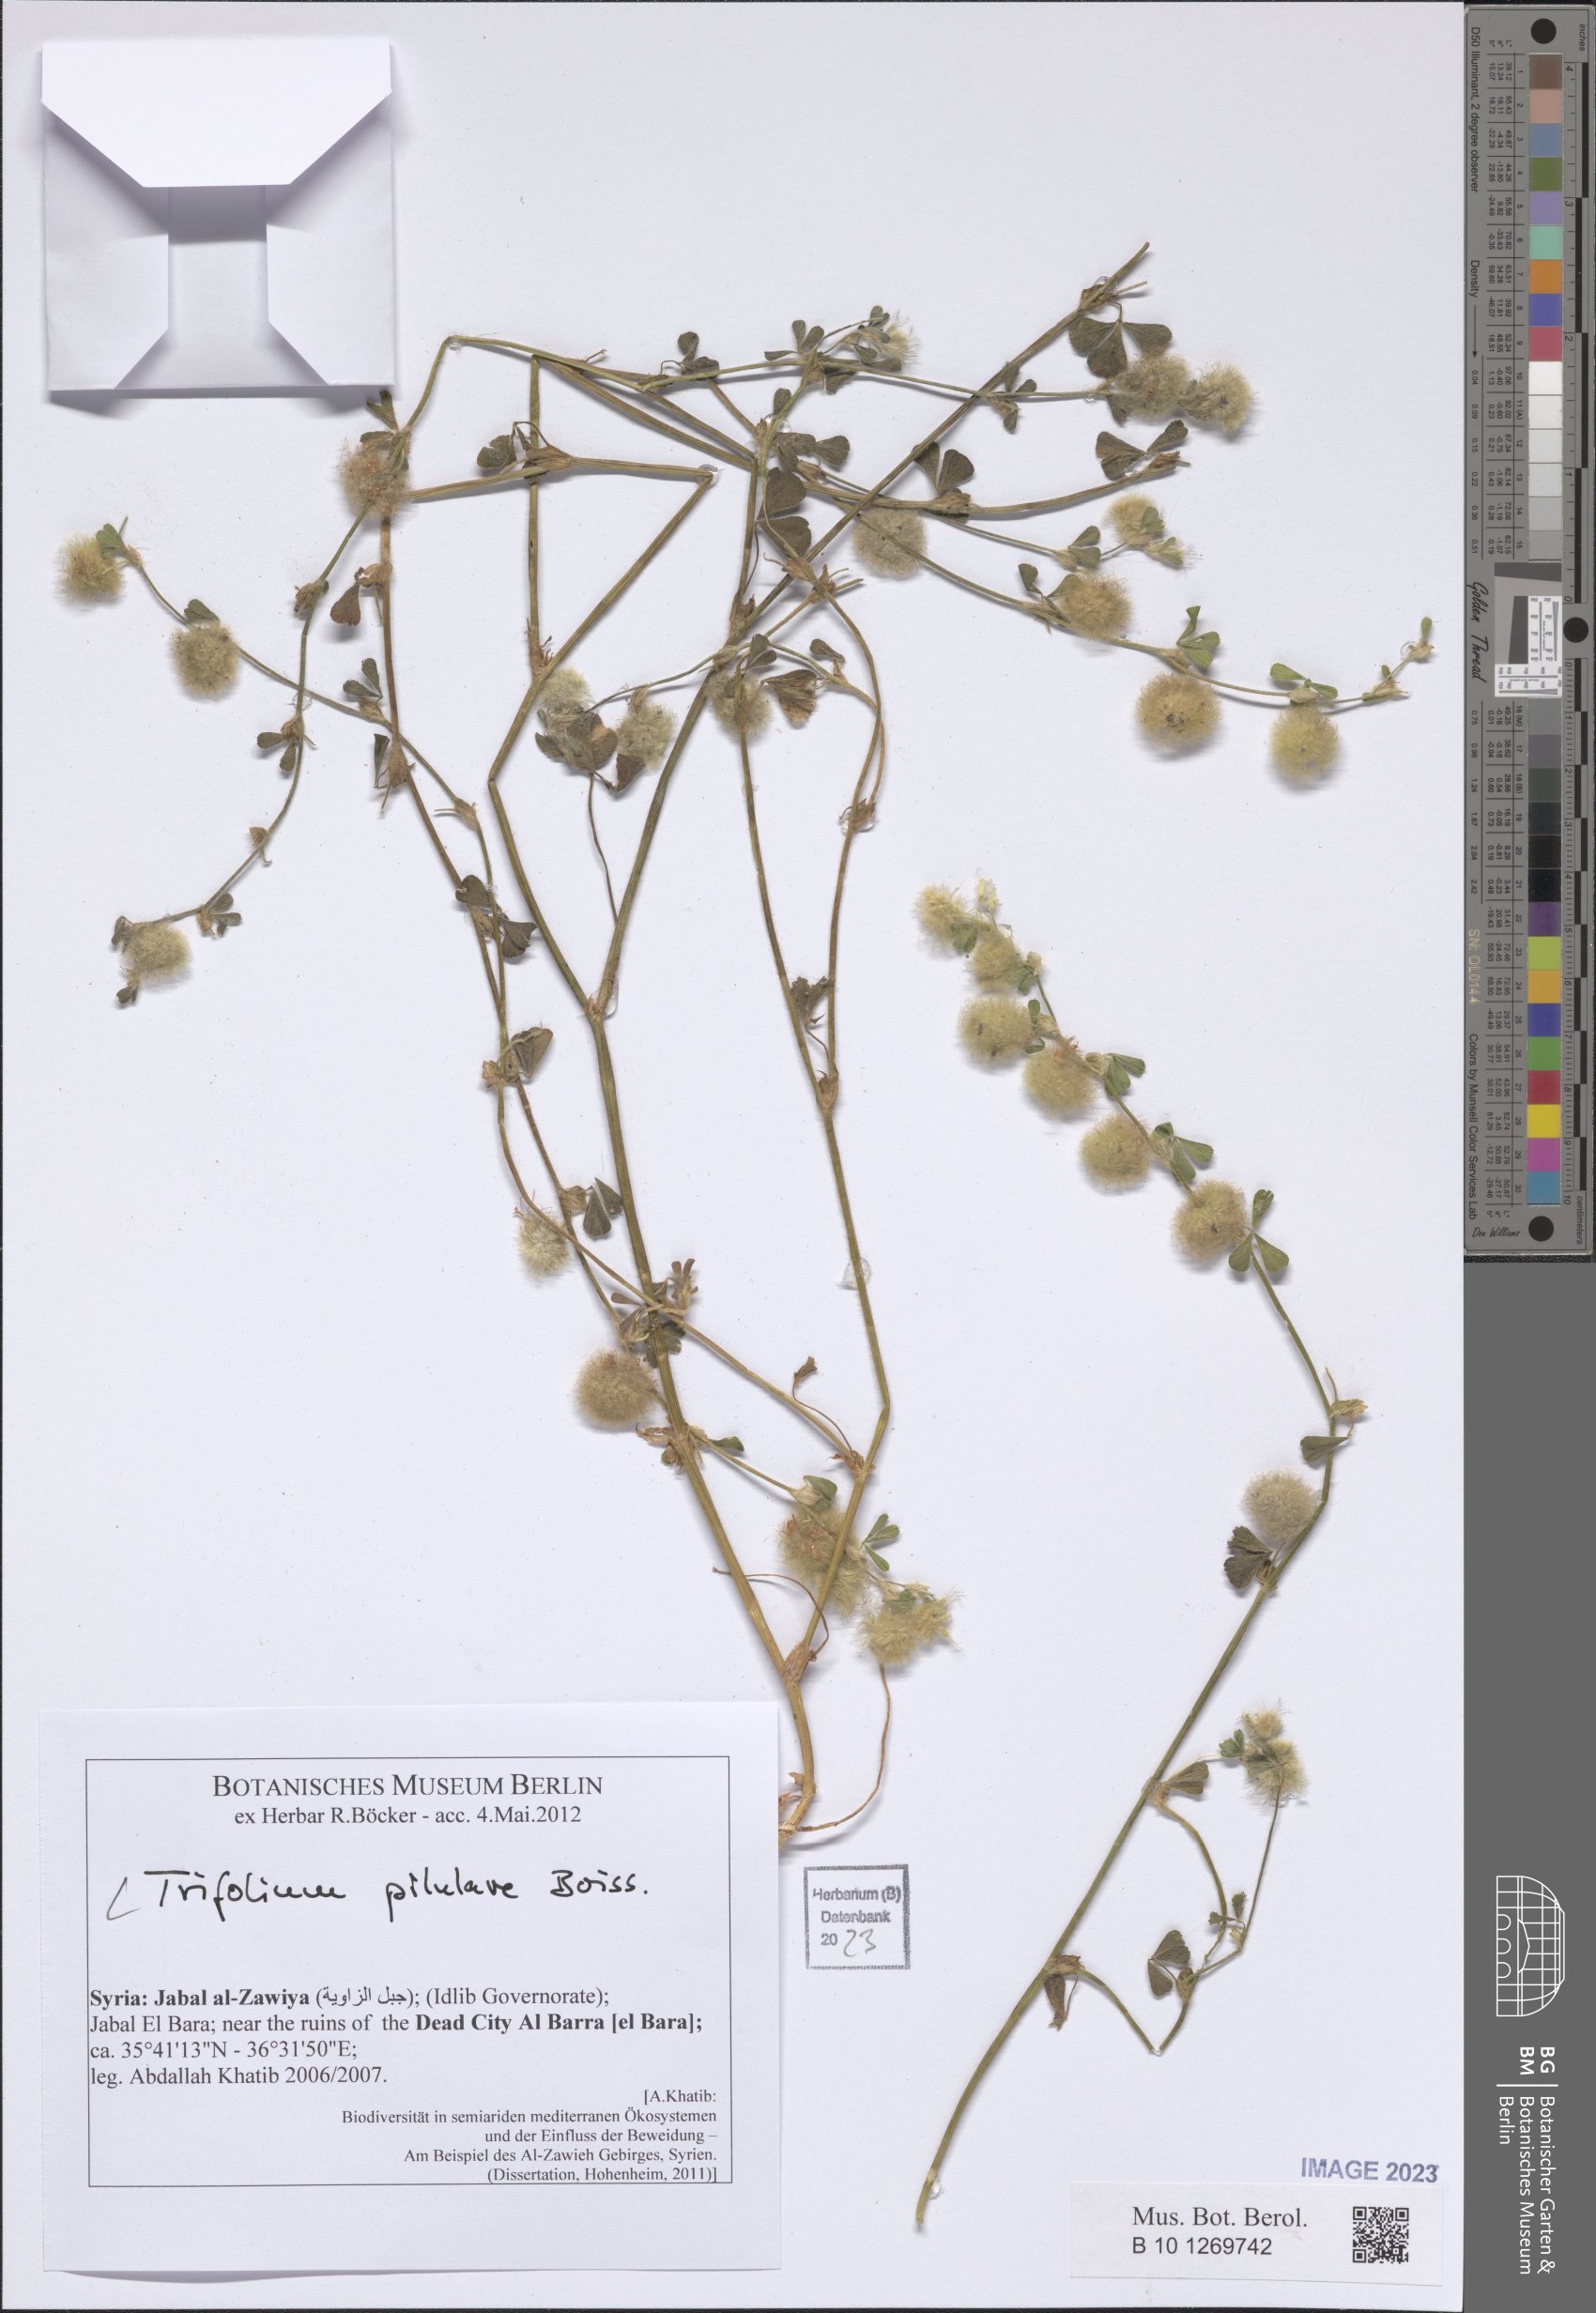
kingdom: Plantae
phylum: Tracheophyta
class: Magnoliopsida
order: Fabales
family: Fabaceae
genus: Trifolium
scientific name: Trifolium pilulare
